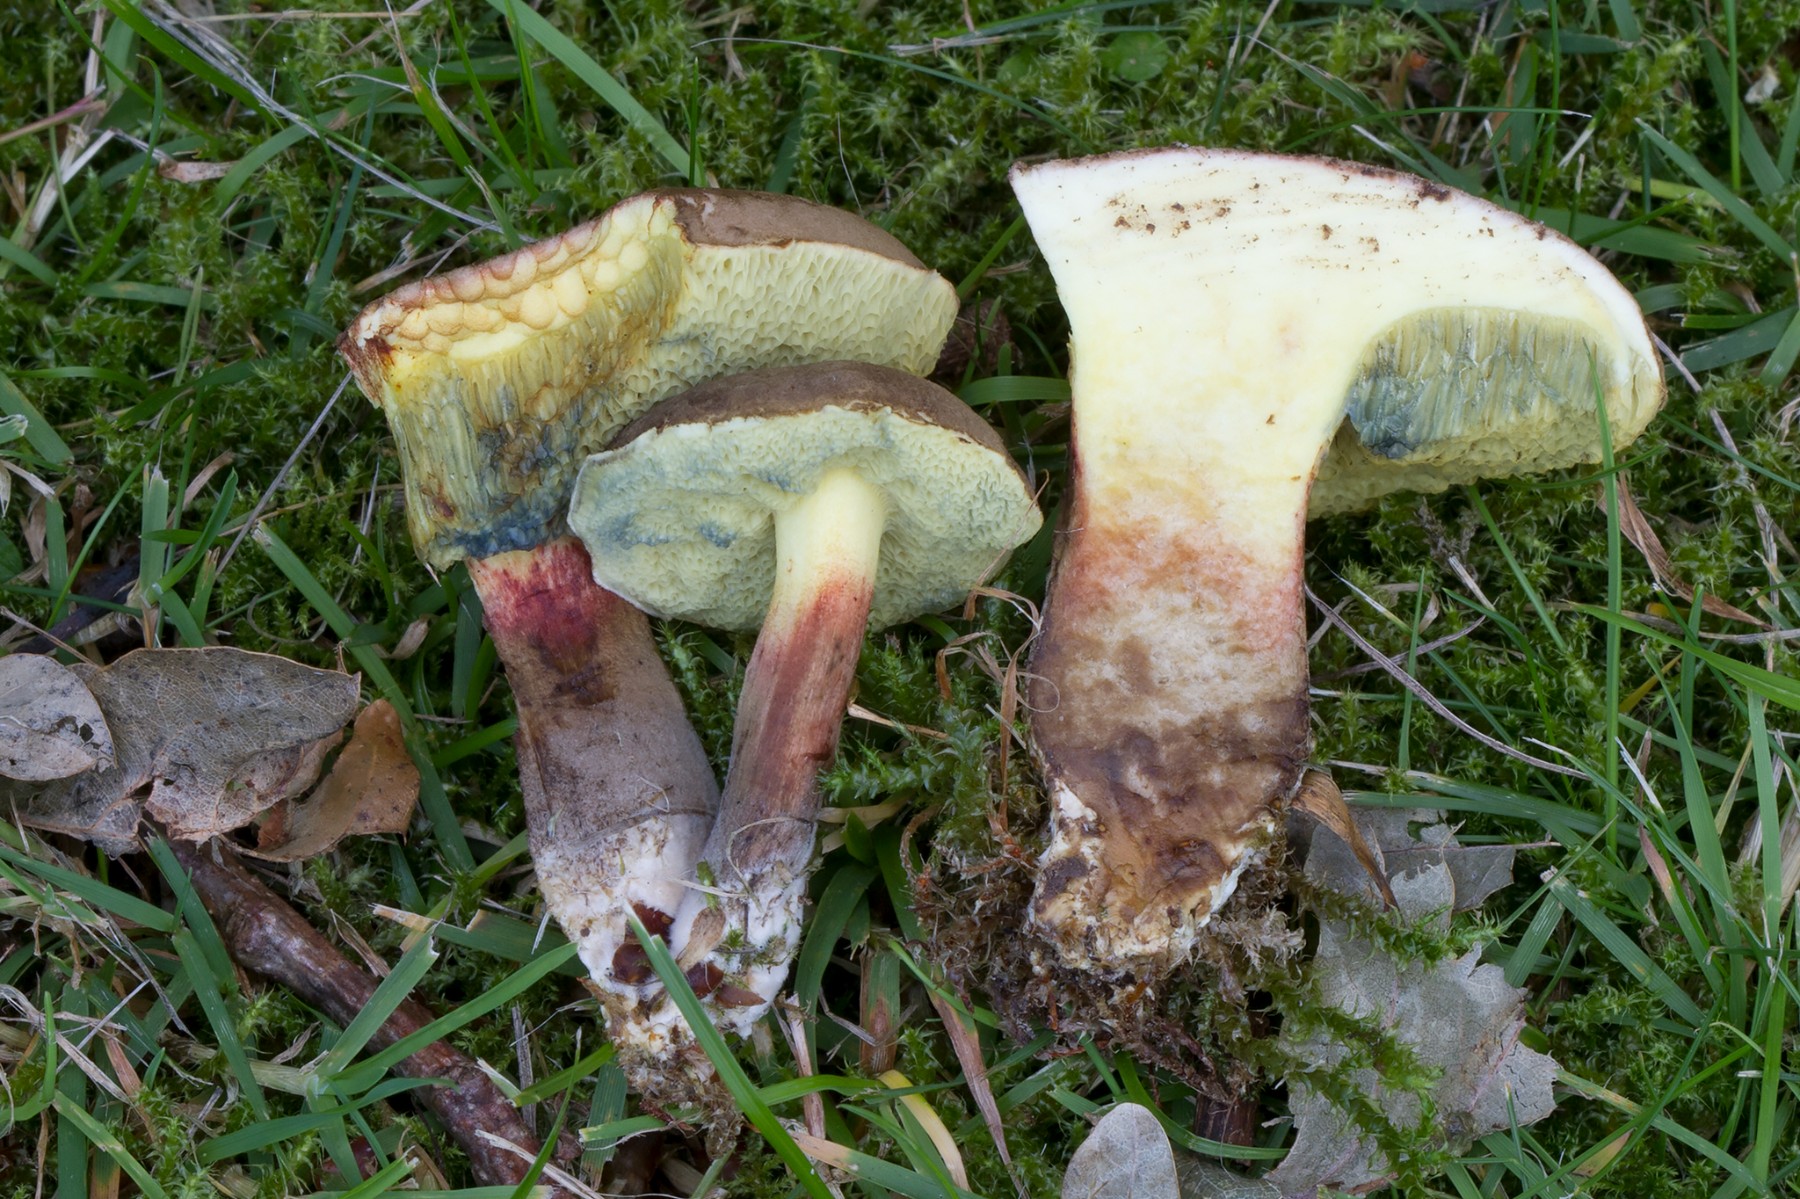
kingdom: Fungi
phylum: Basidiomycota
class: Agaricomycetes
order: Boletales
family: Boletaceae
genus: Xerocomellus
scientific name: Xerocomellus chrysenteron
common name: rødsprukken rørhat
